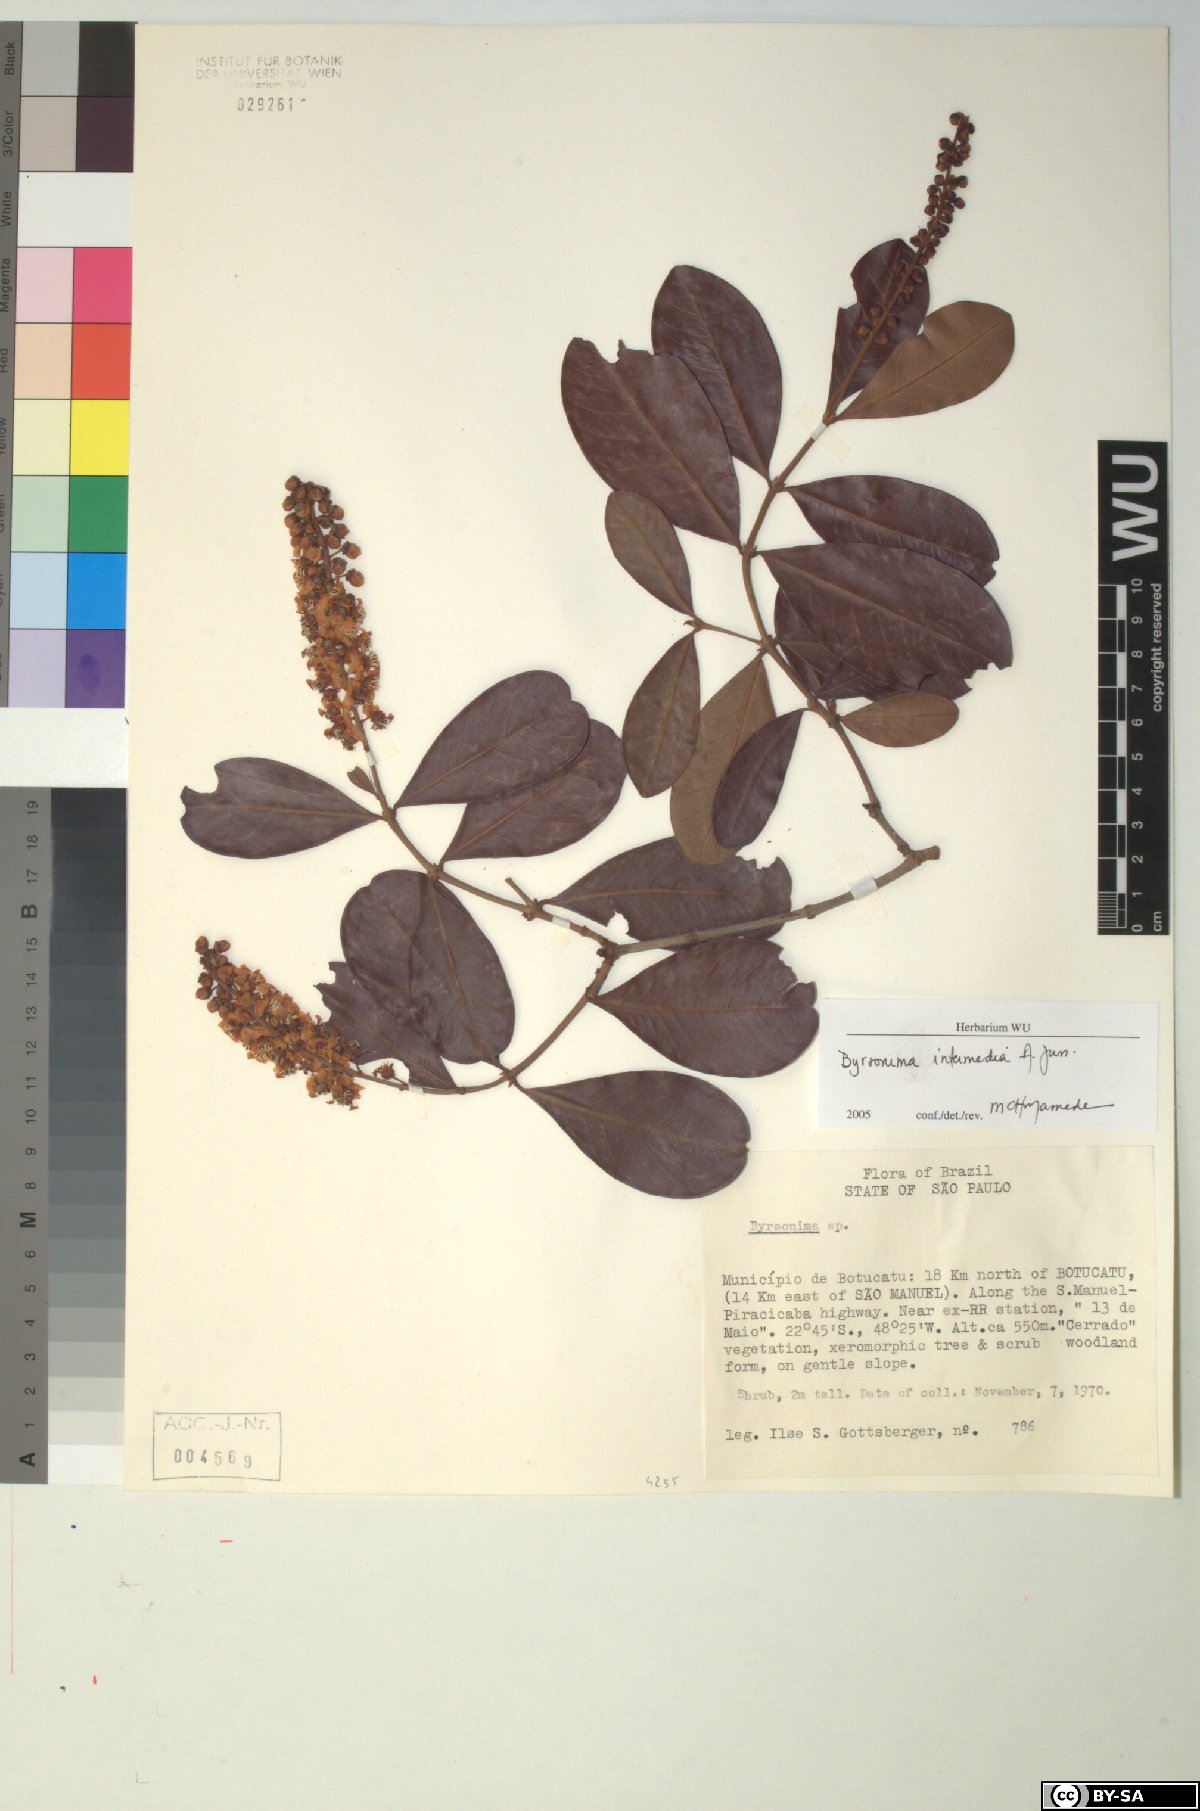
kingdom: Plantae
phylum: Tracheophyta
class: Magnoliopsida
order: Malpighiales
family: Malpighiaceae
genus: Byrsonima
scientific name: Byrsonima intermedia
